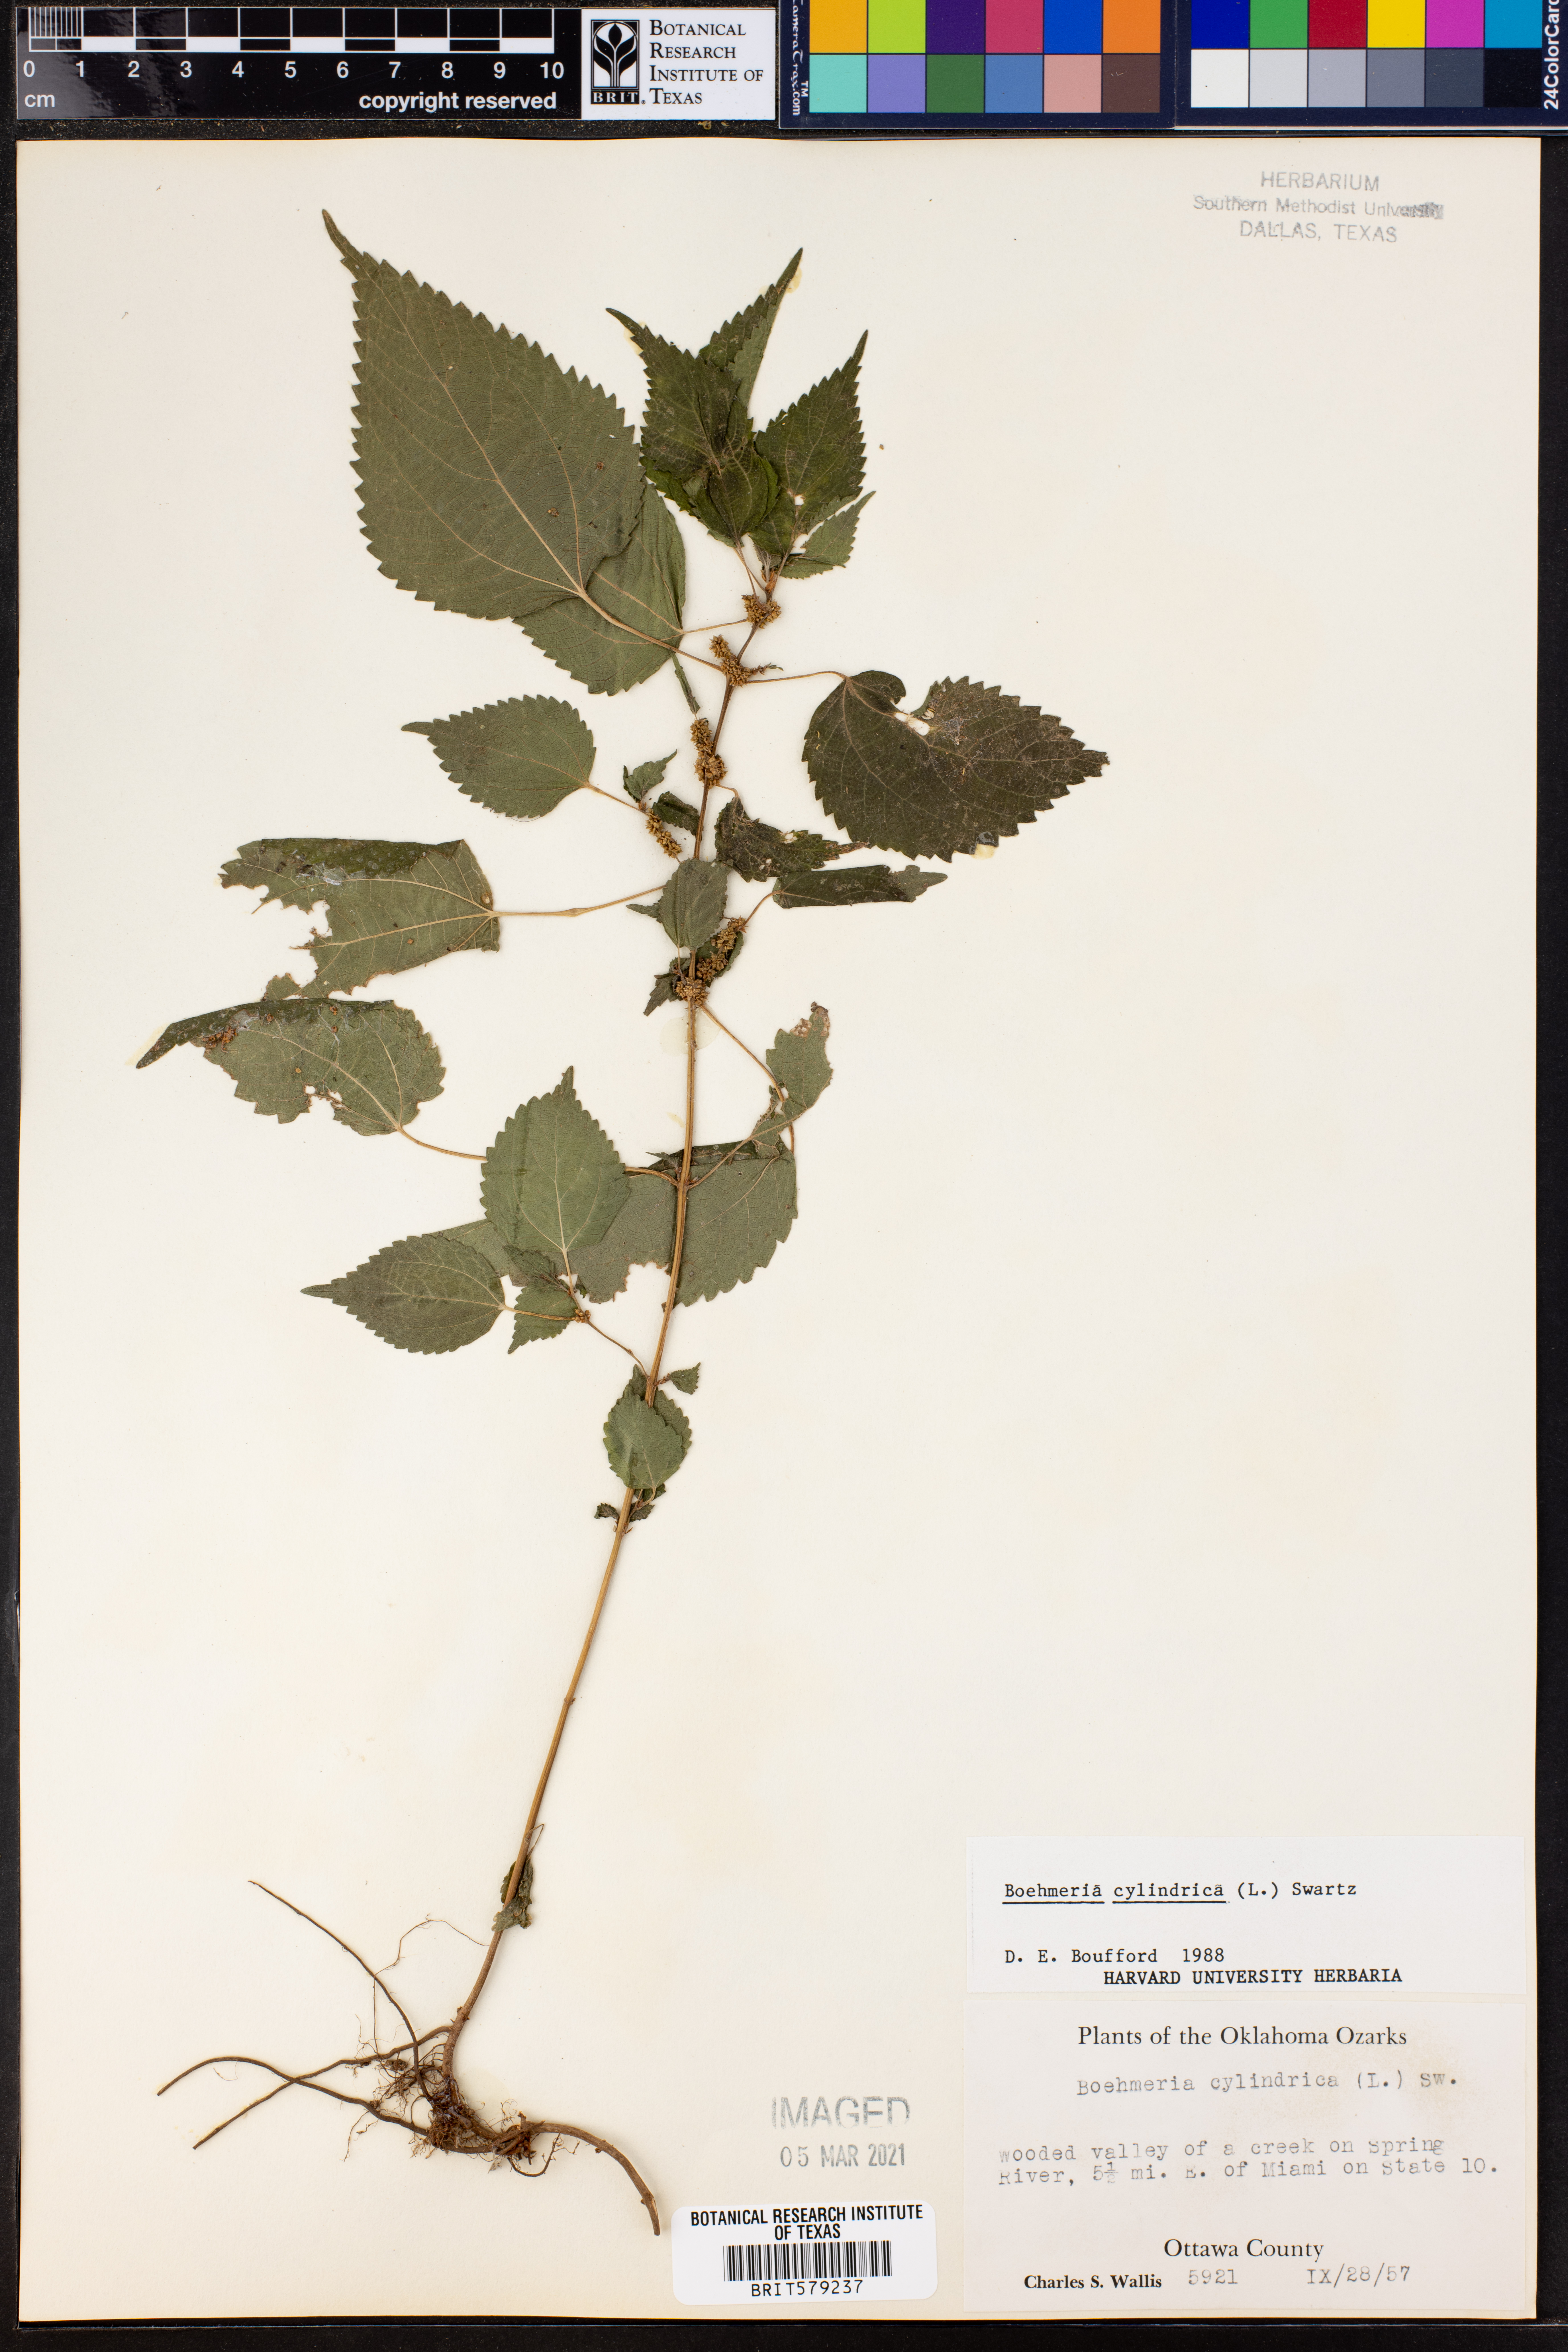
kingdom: Plantae
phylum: Tracheophyta
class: Magnoliopsida
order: Rosales
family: Urticaceae
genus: Boehmeria
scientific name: Boehmeria cylindrica
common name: Bog-hemp
